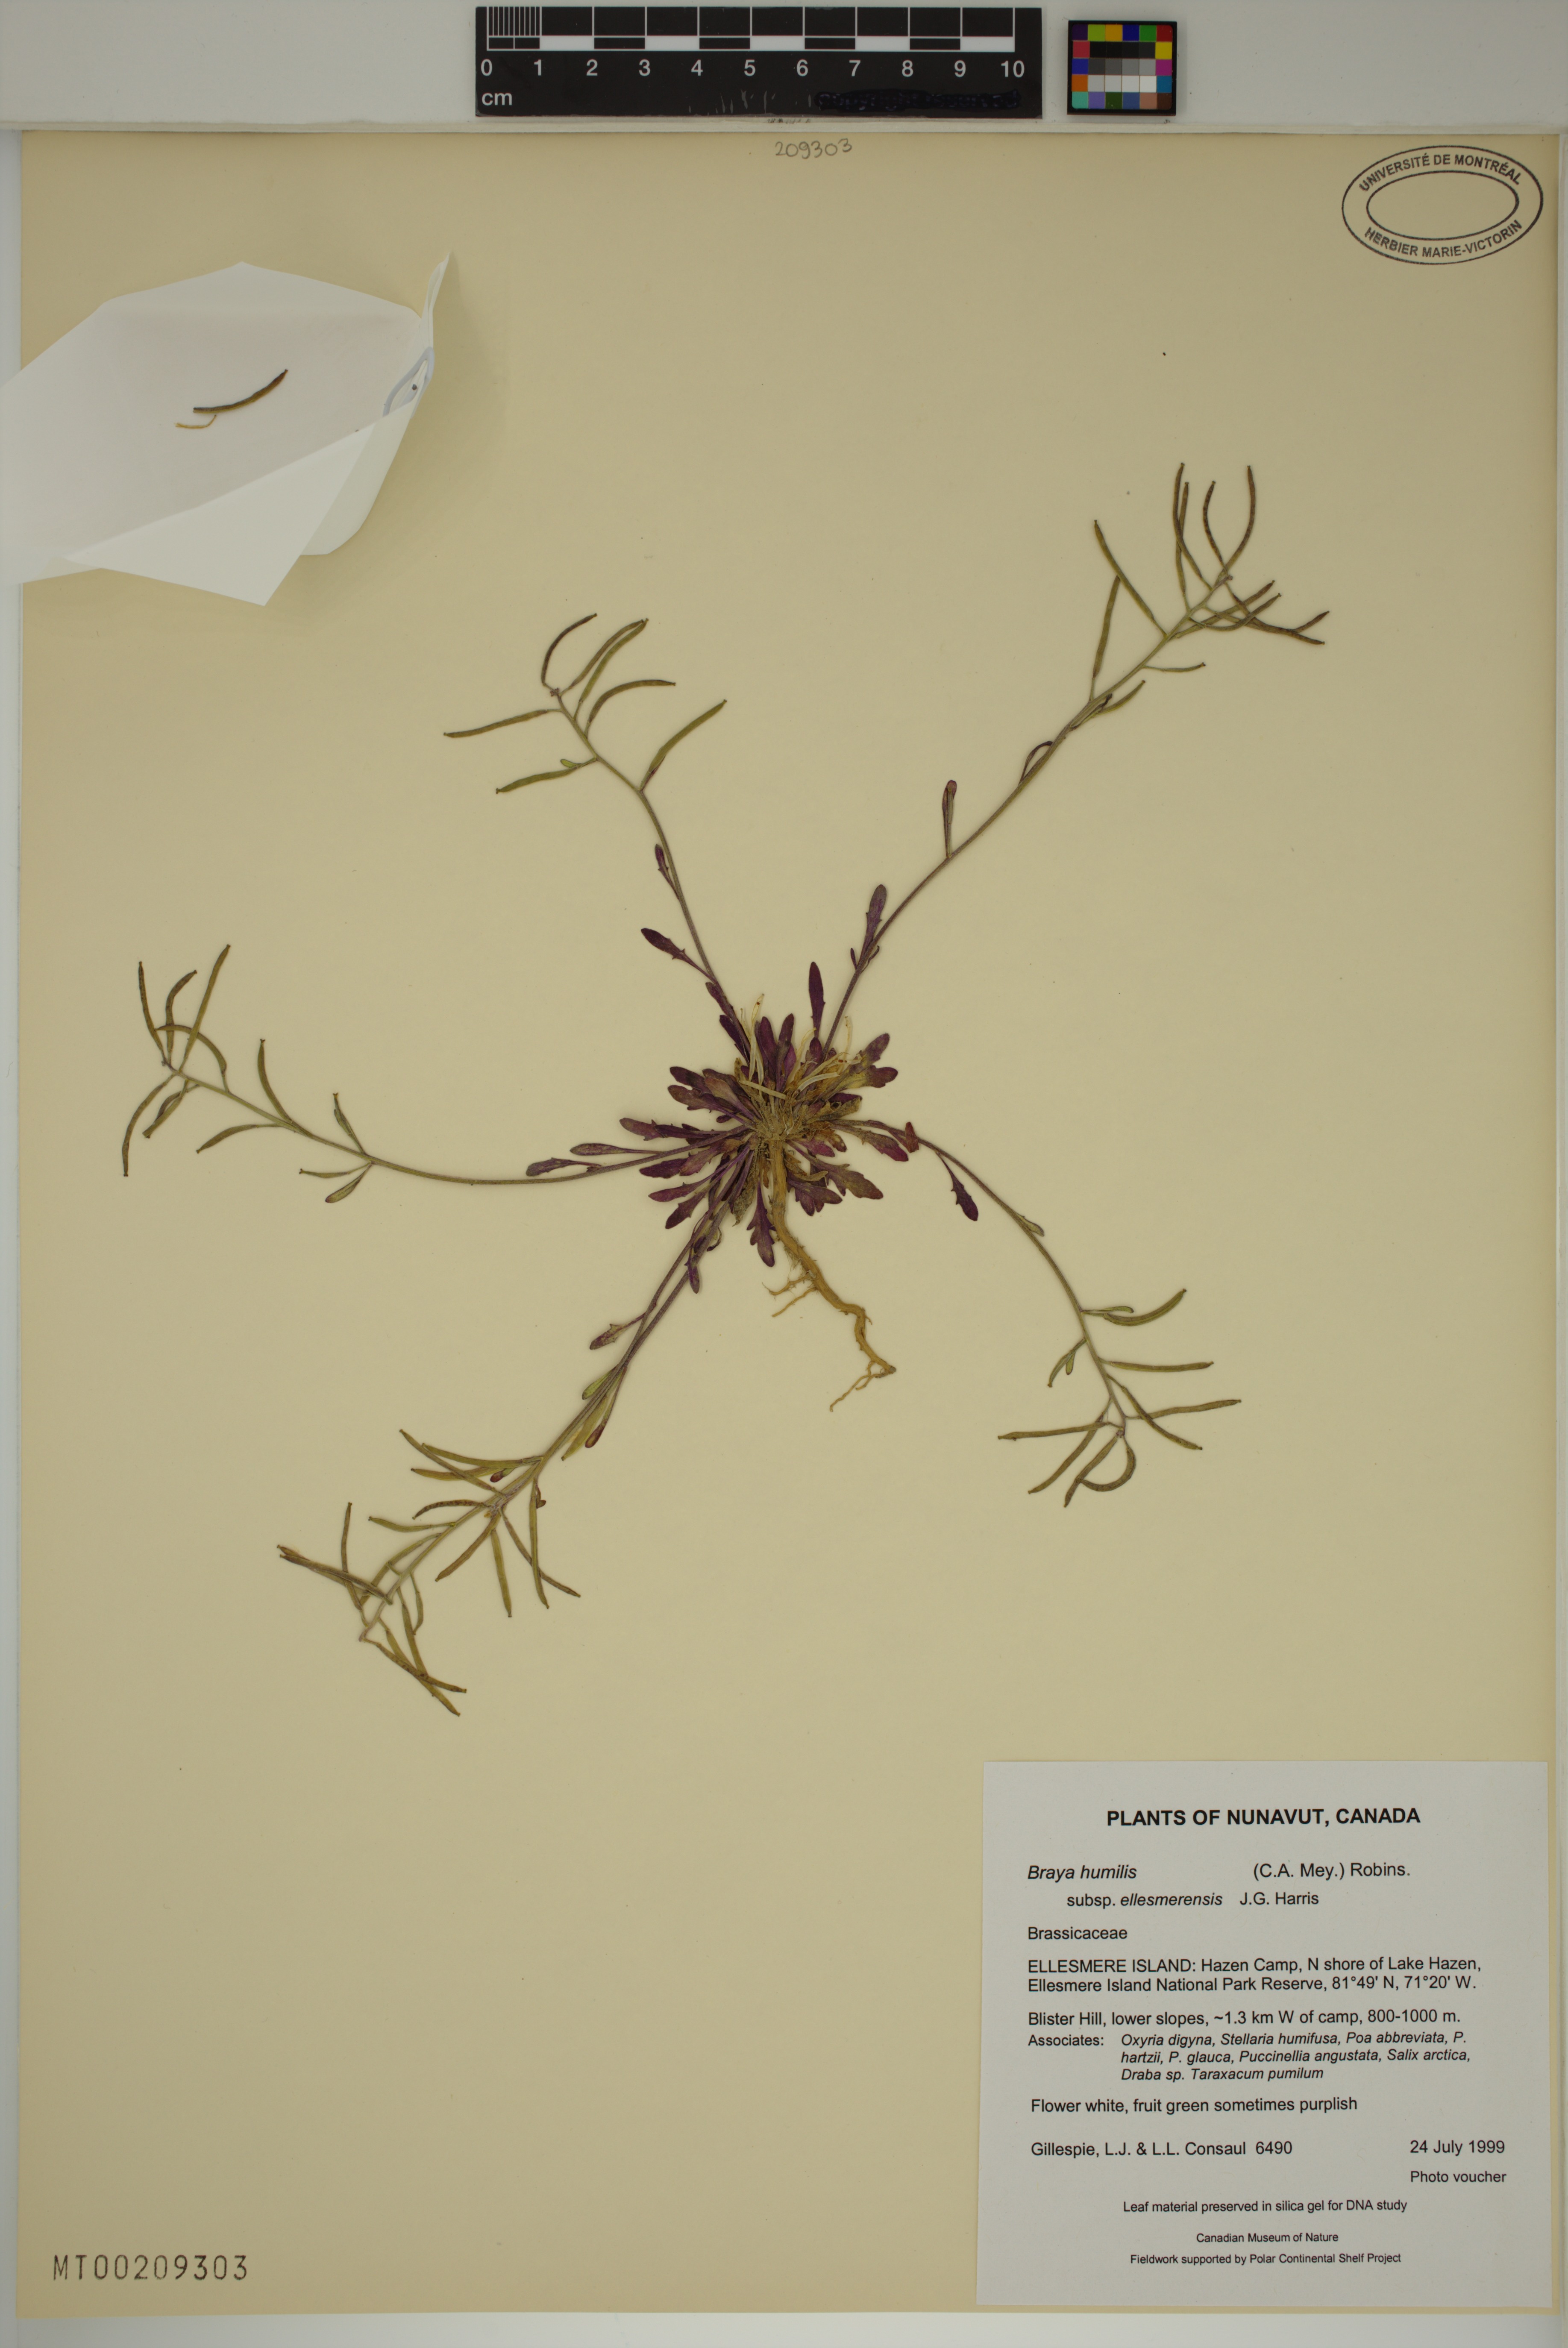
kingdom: Plantae
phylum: Tracheophyta
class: Magnoliopsida
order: Brassicales
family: Brassicaceae
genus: Braya
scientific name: Braya humilis
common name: Alpine northern rockcress
